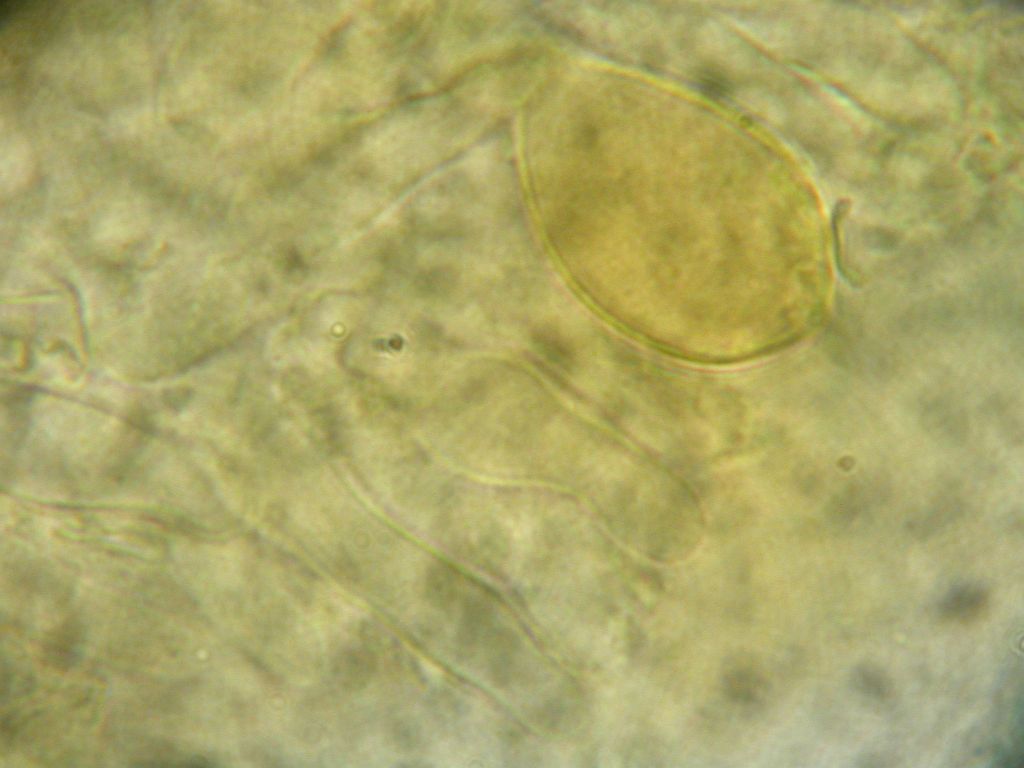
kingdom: Fungi
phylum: Basidiomycota
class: Agaricomycetes
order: Agaricales
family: Strophariaceae
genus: Hypholoma
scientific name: Hypholoma polytrichi
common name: jomfruhår-svovlhat
